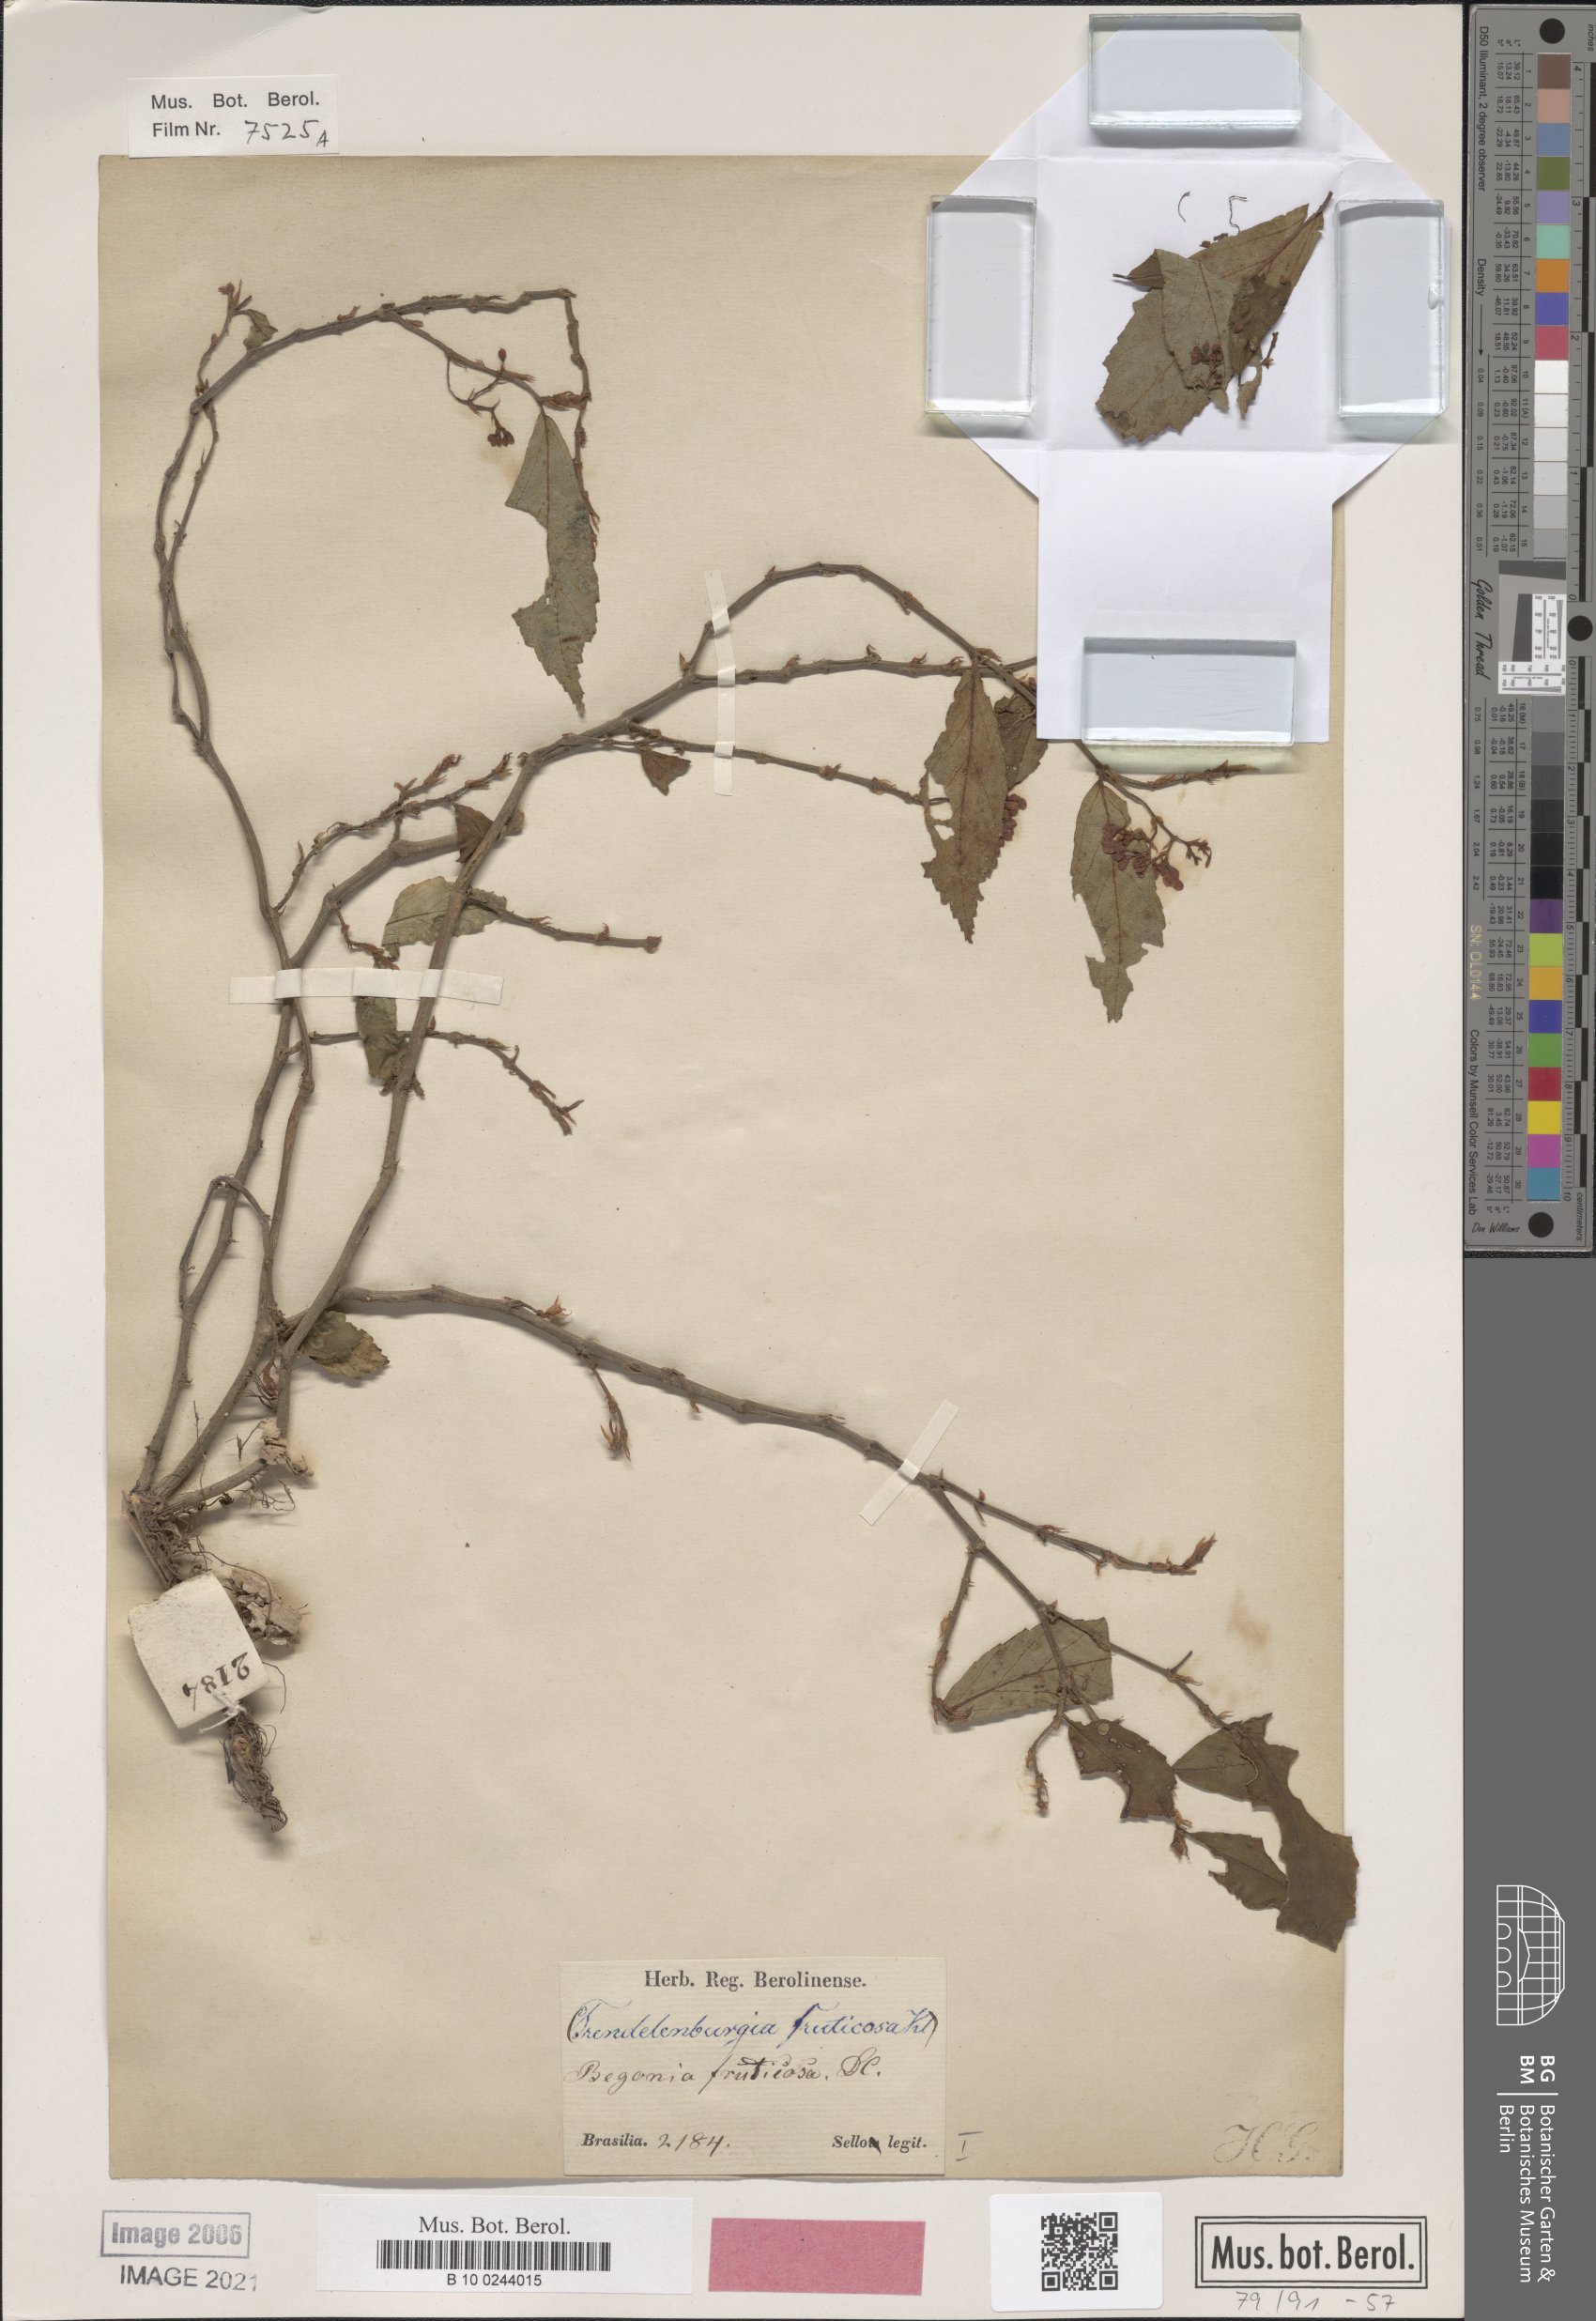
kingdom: Plantae
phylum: Tracheophyta
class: Magnoliopsida
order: Cucurbitales
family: Begoniaceae
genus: Begonia
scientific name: Begonia fruticosa
